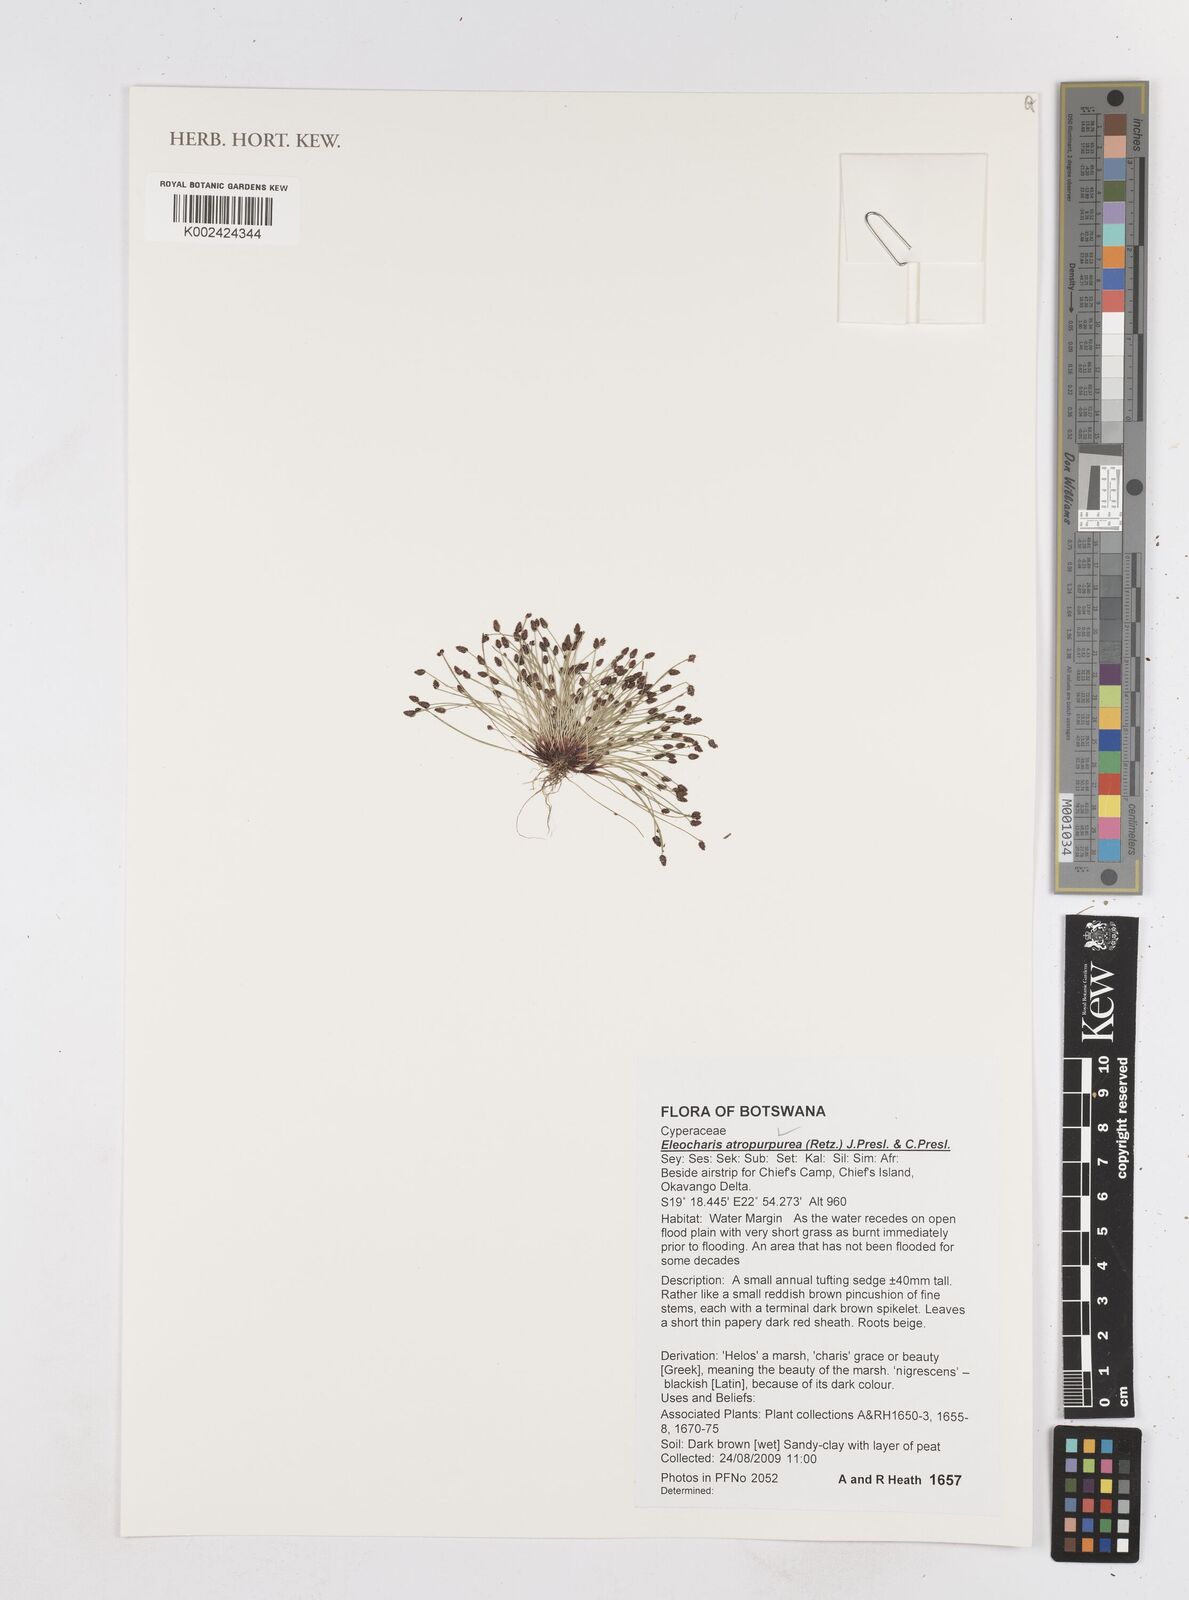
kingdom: Plantae
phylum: Tracheophyta
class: Liliopsida
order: Poales
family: Cyperaceae
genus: Eleocharis
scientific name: Eleocharis atropurpurea
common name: Purple spikerush
